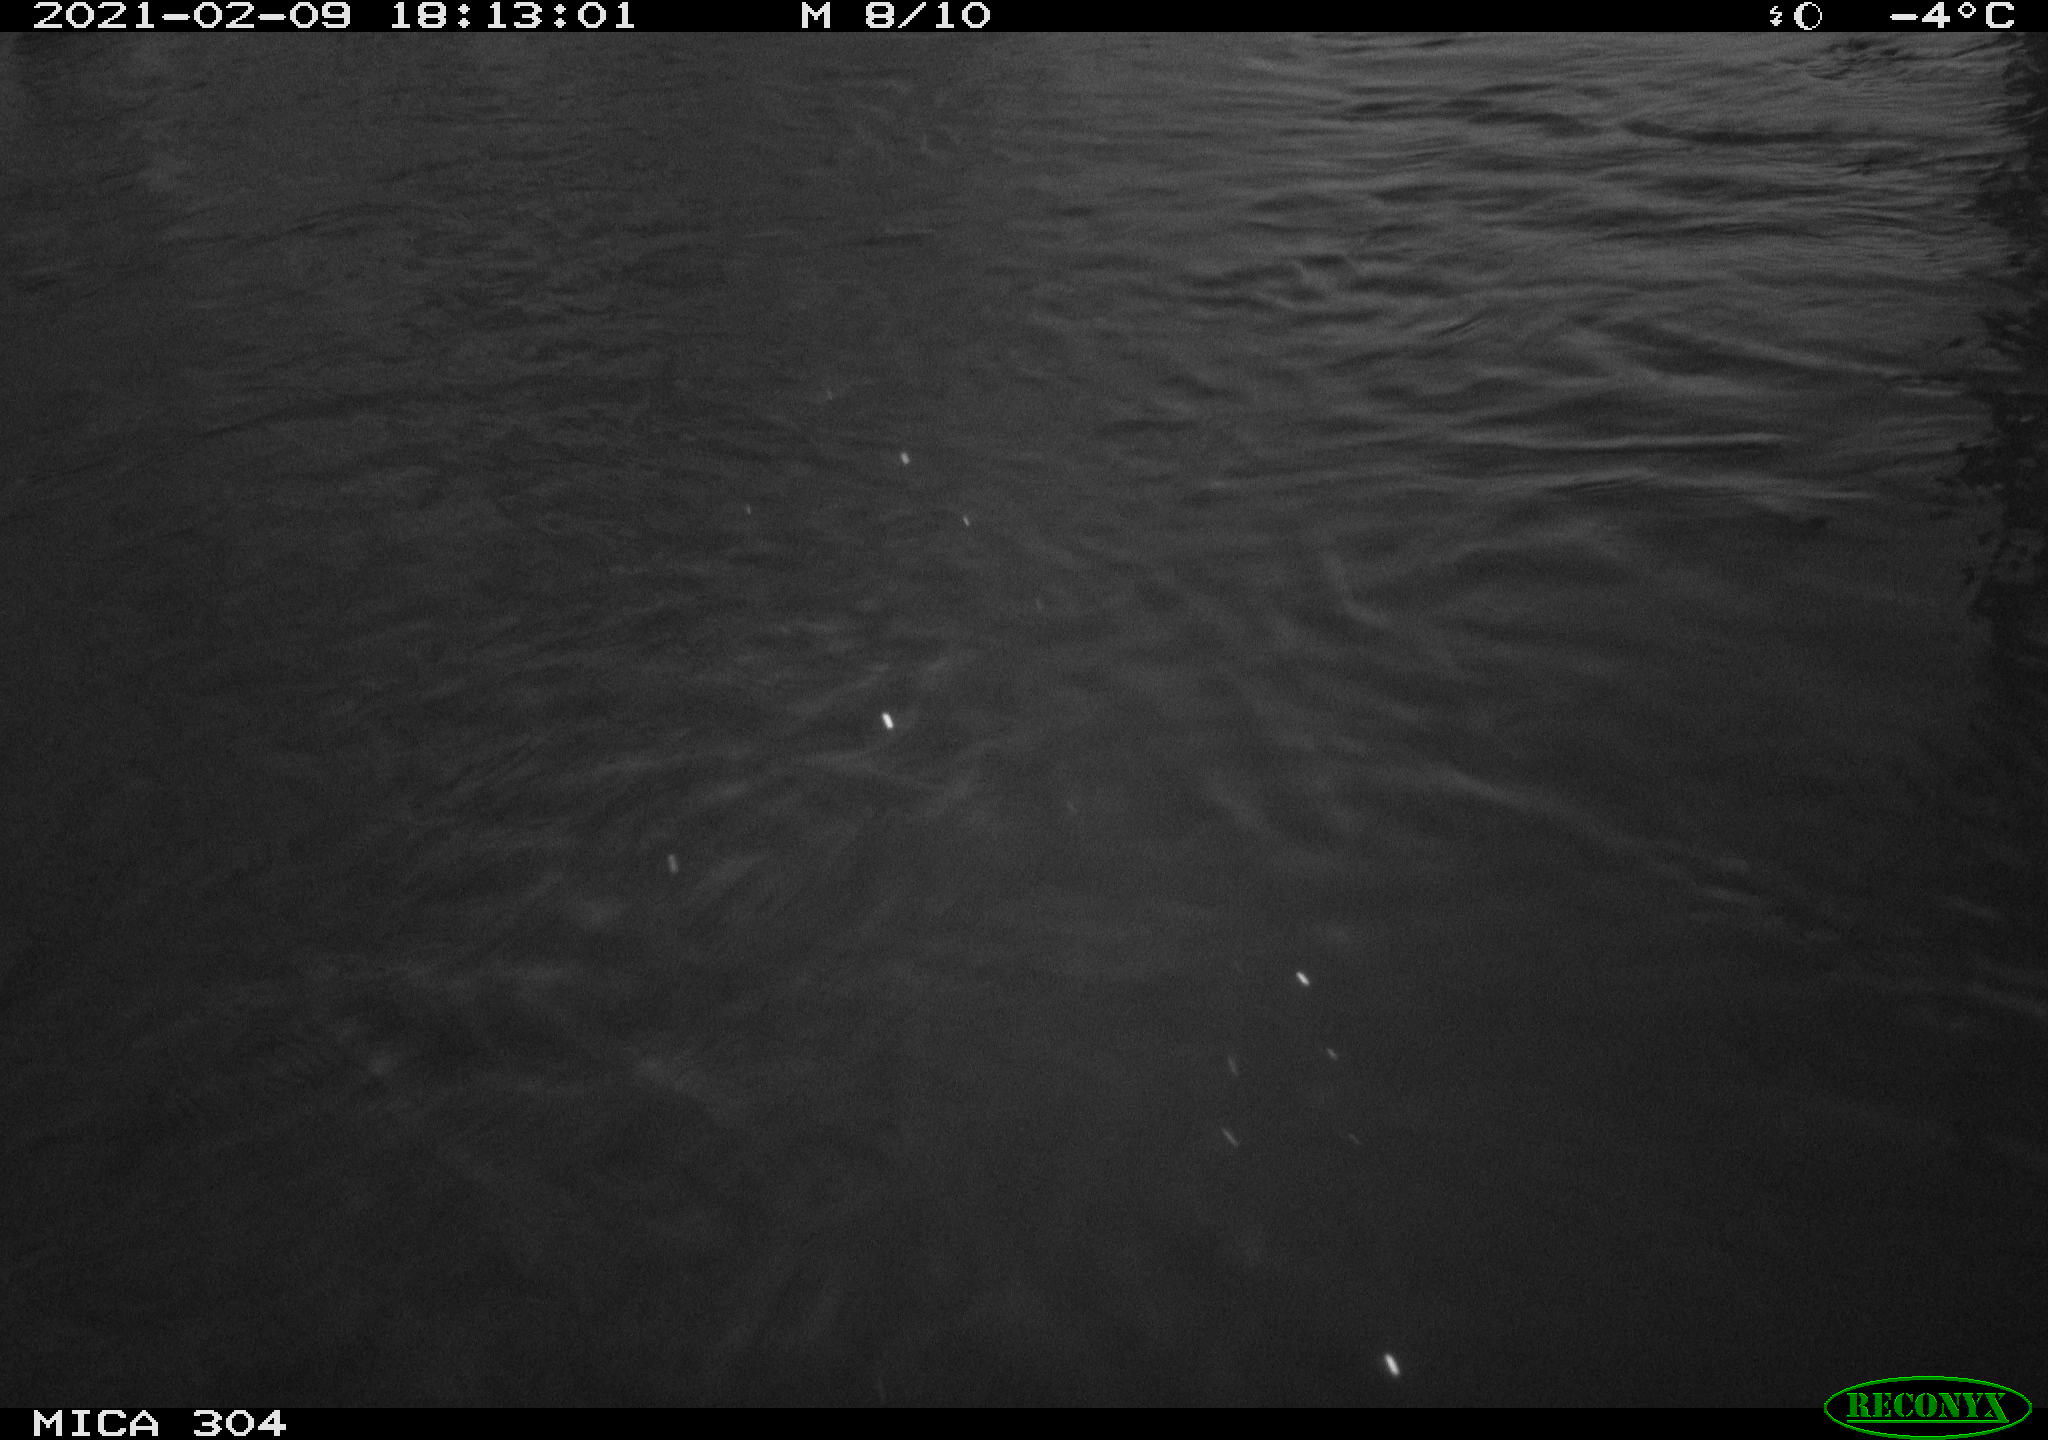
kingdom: Animalia
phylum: Chordata
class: Aves
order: Anseriformes
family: Anatidae
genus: Anas
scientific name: Anas platyrhynchos
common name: Mallard
